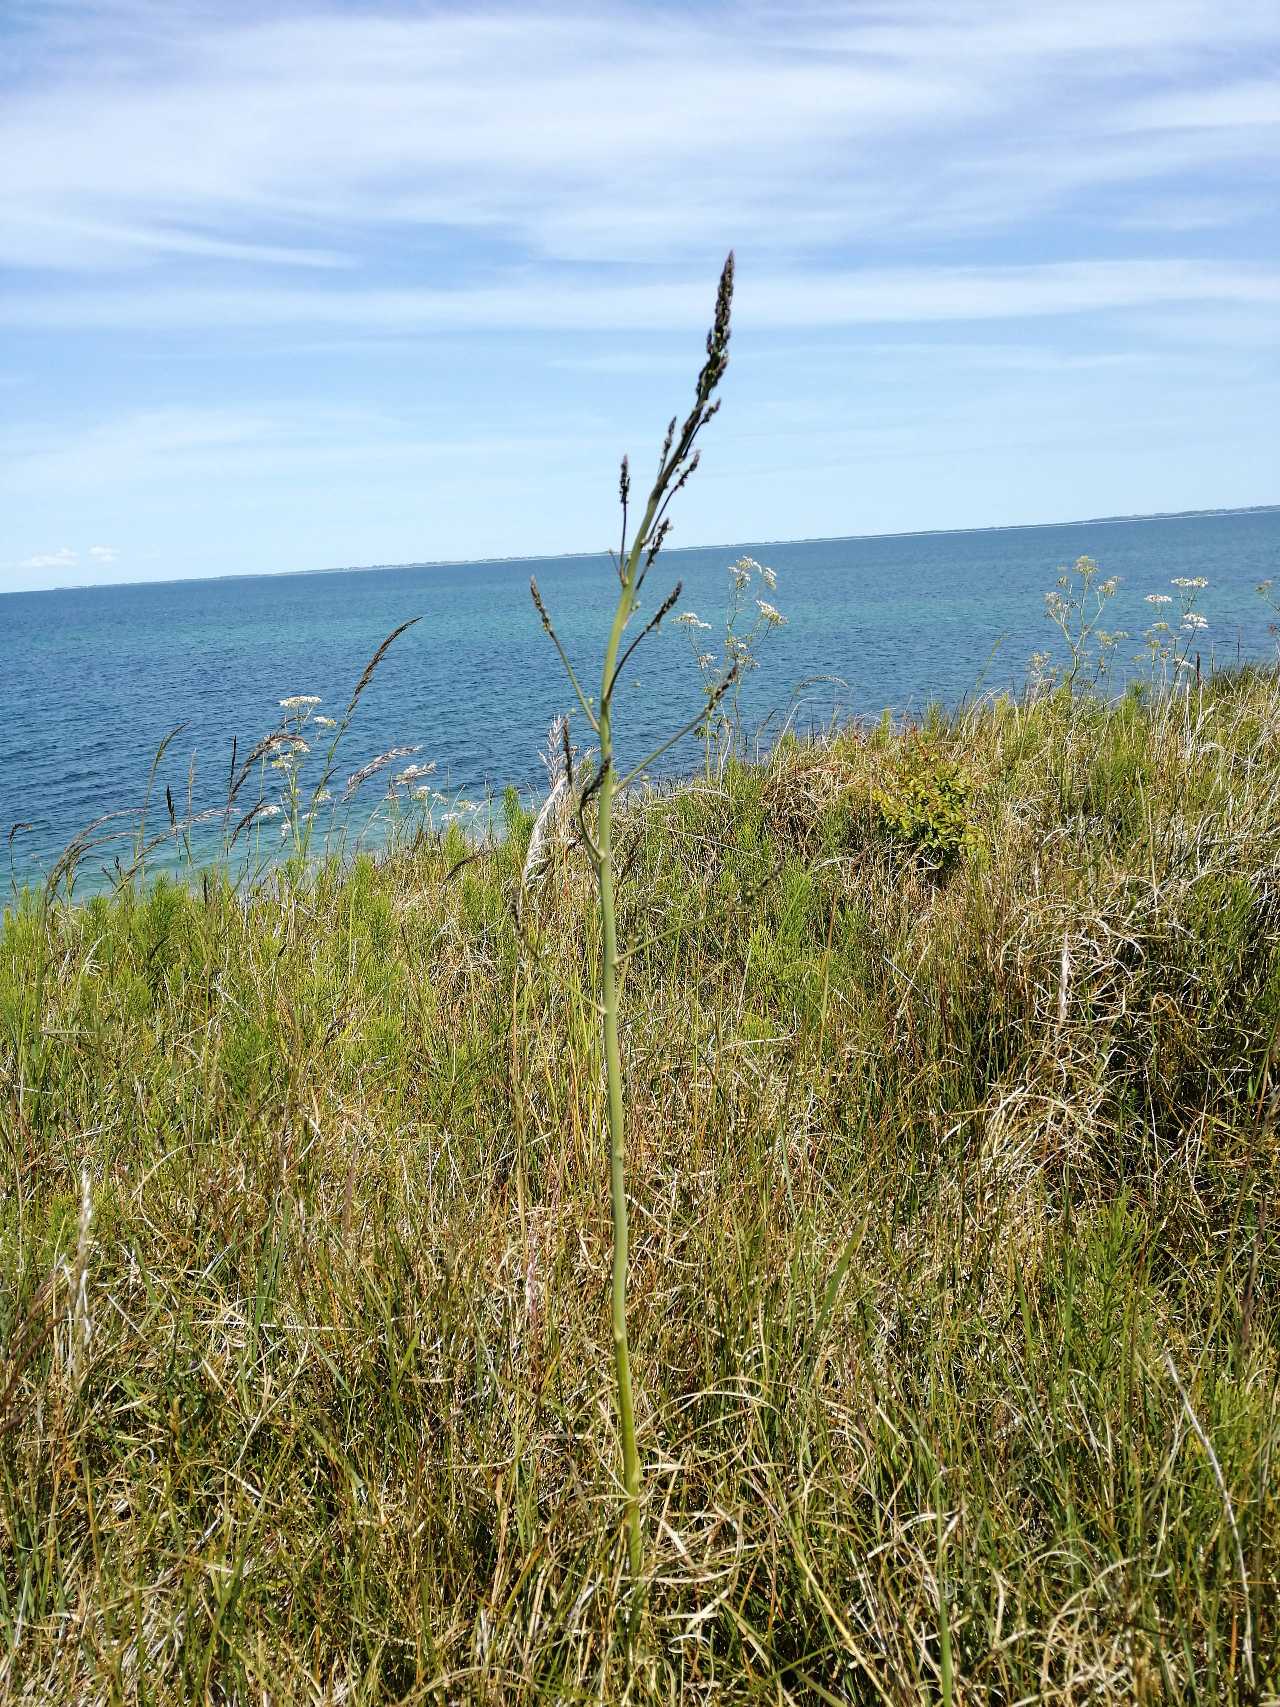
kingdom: Plantae
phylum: Tracheophyta
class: Liliopsida
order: Asparagales
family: Asparagaceae
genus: Asparagus
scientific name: Asparagus officinalis
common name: Asparges
